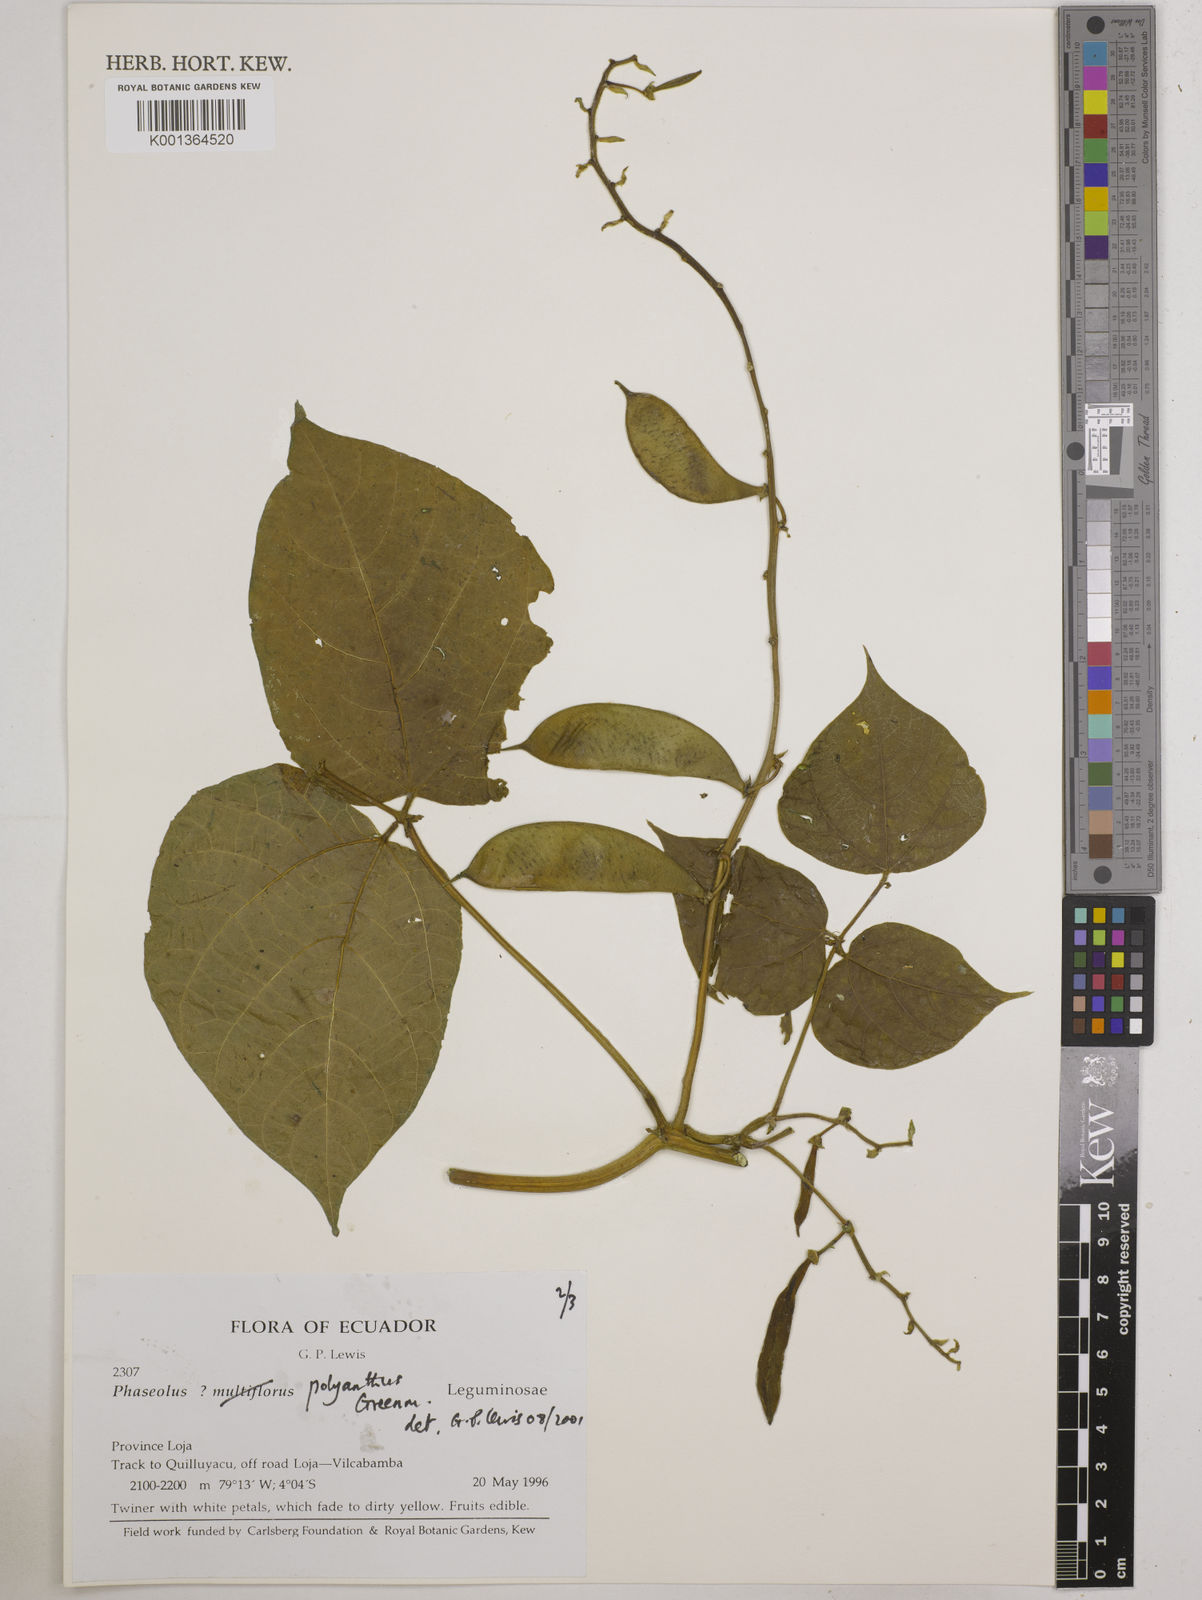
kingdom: Plantae
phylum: Tracheophyta
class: Magnoliopsida
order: Fabales
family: Fabaceae
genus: Phaseolus
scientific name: Phaseolus dumosus
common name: Year bean
